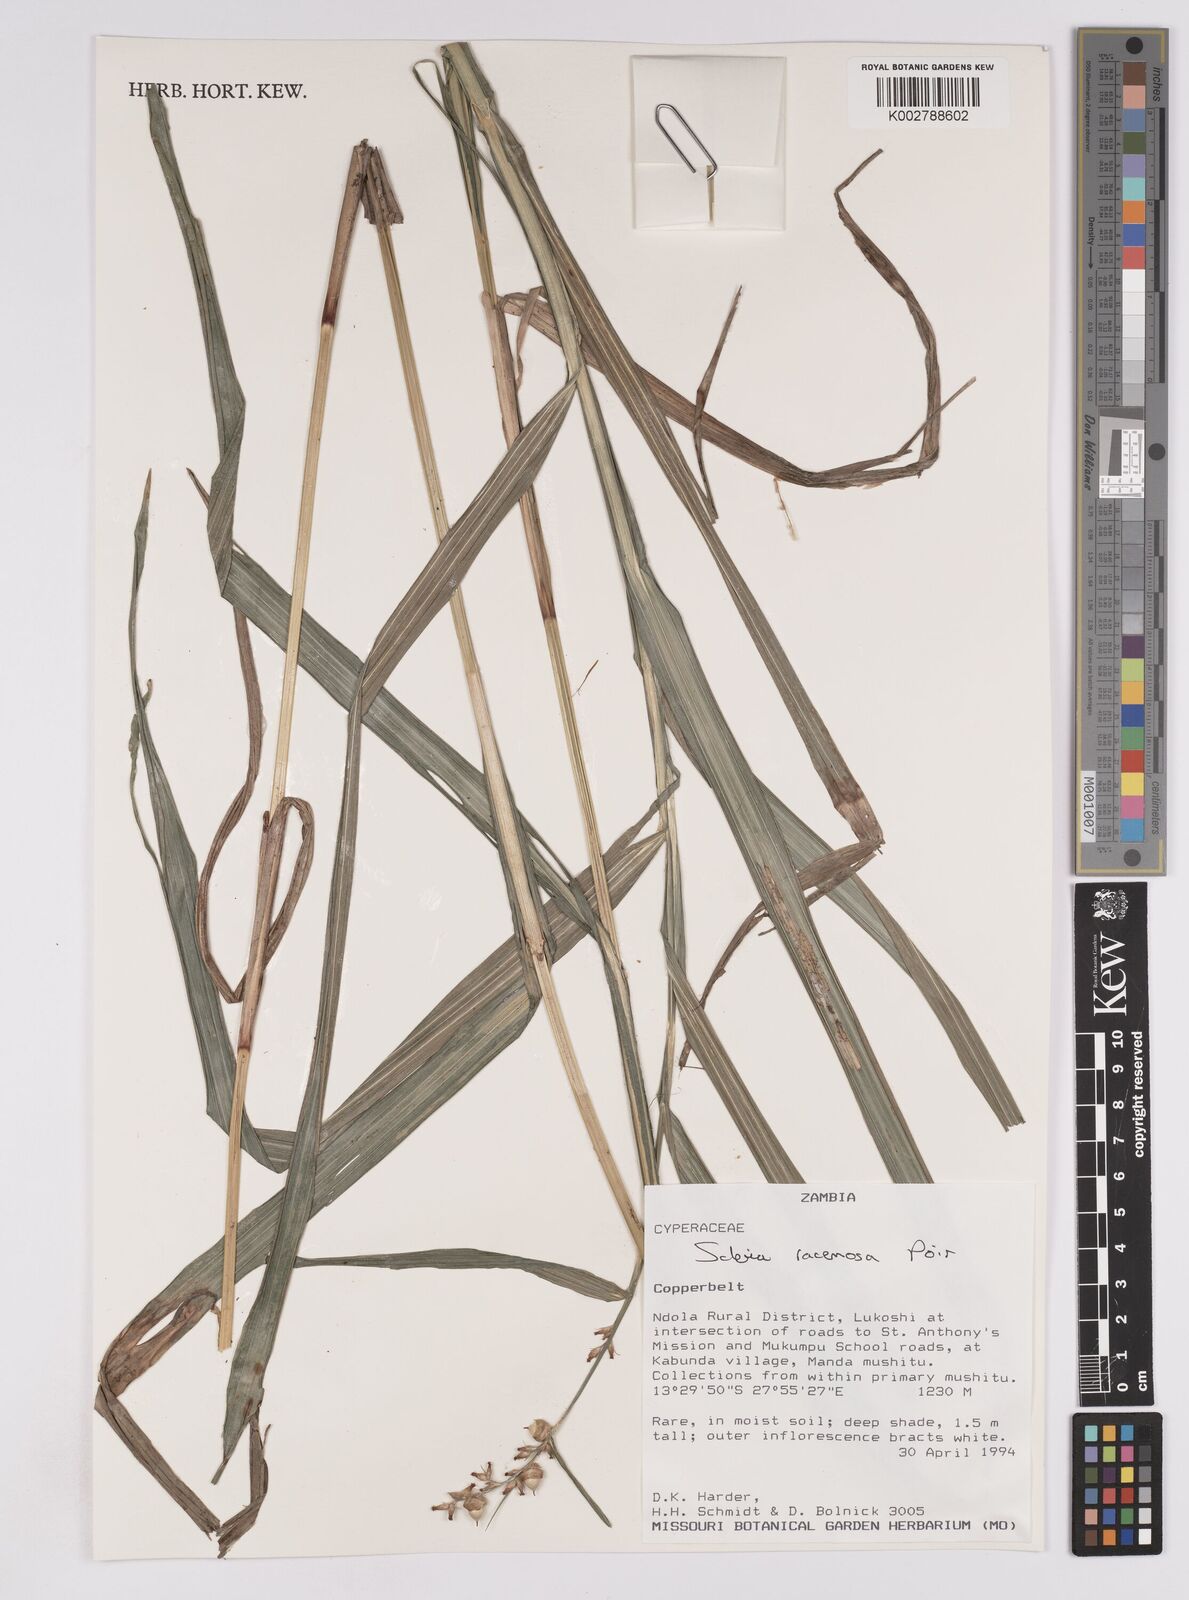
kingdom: Plantae
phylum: Tracheophyta
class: Liliopsida
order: Poales
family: Cyperaceae
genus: Scleria
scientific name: Scleria racemosa
